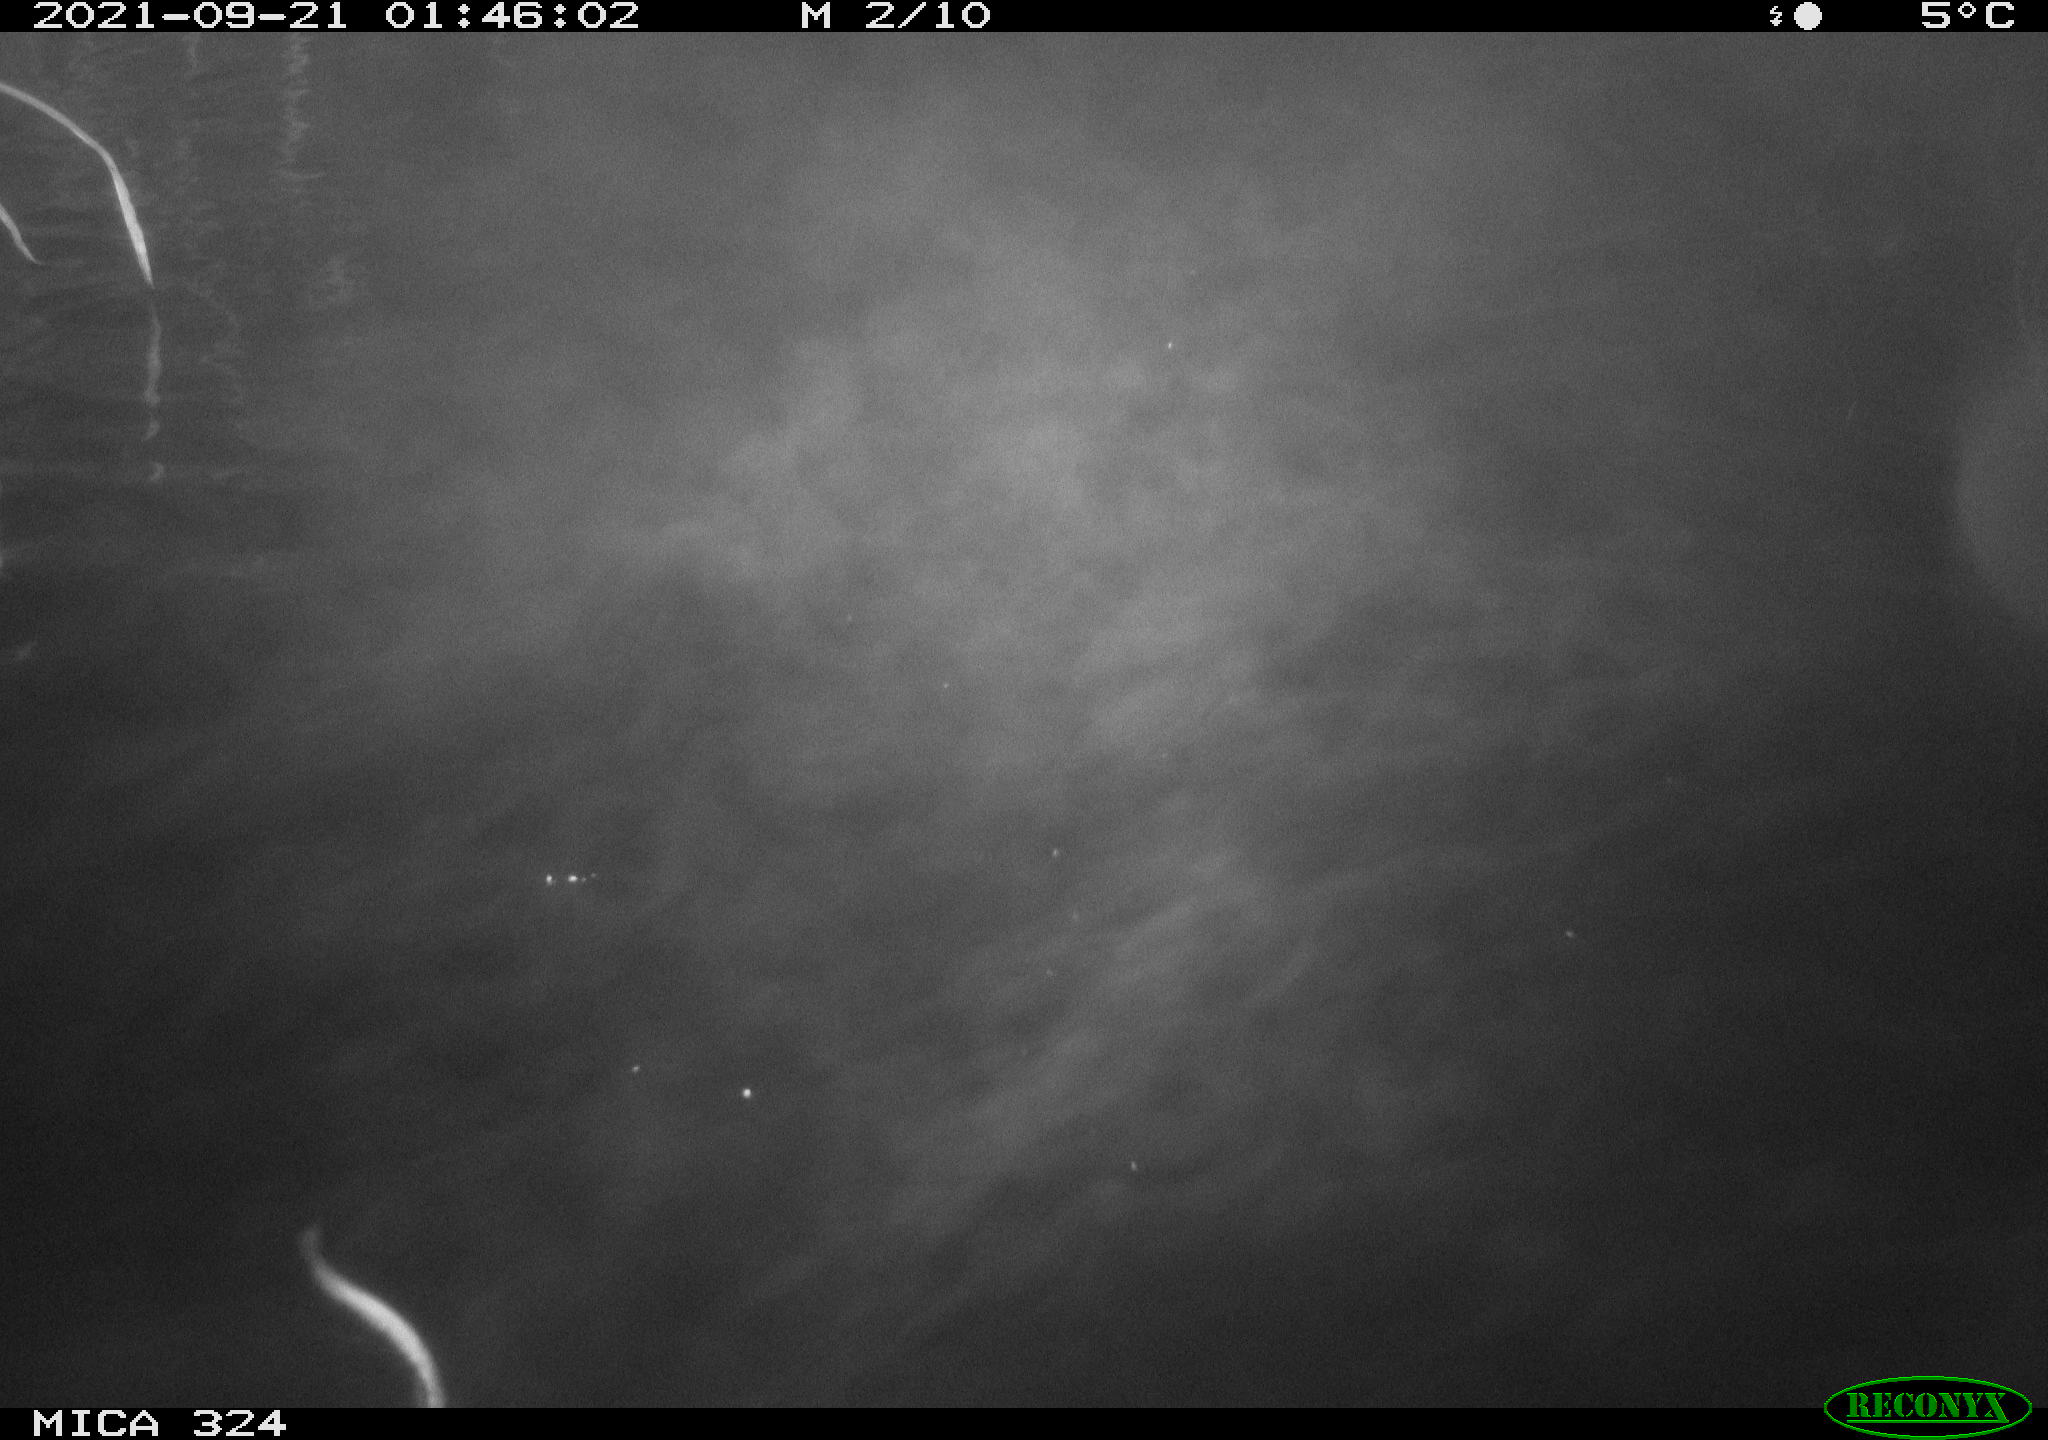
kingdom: Animalia
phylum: Chordata
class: Mammalia
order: Rodentia
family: Cricetidae
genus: Ondatra
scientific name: Ondatra zibethicus
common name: Muskrat
